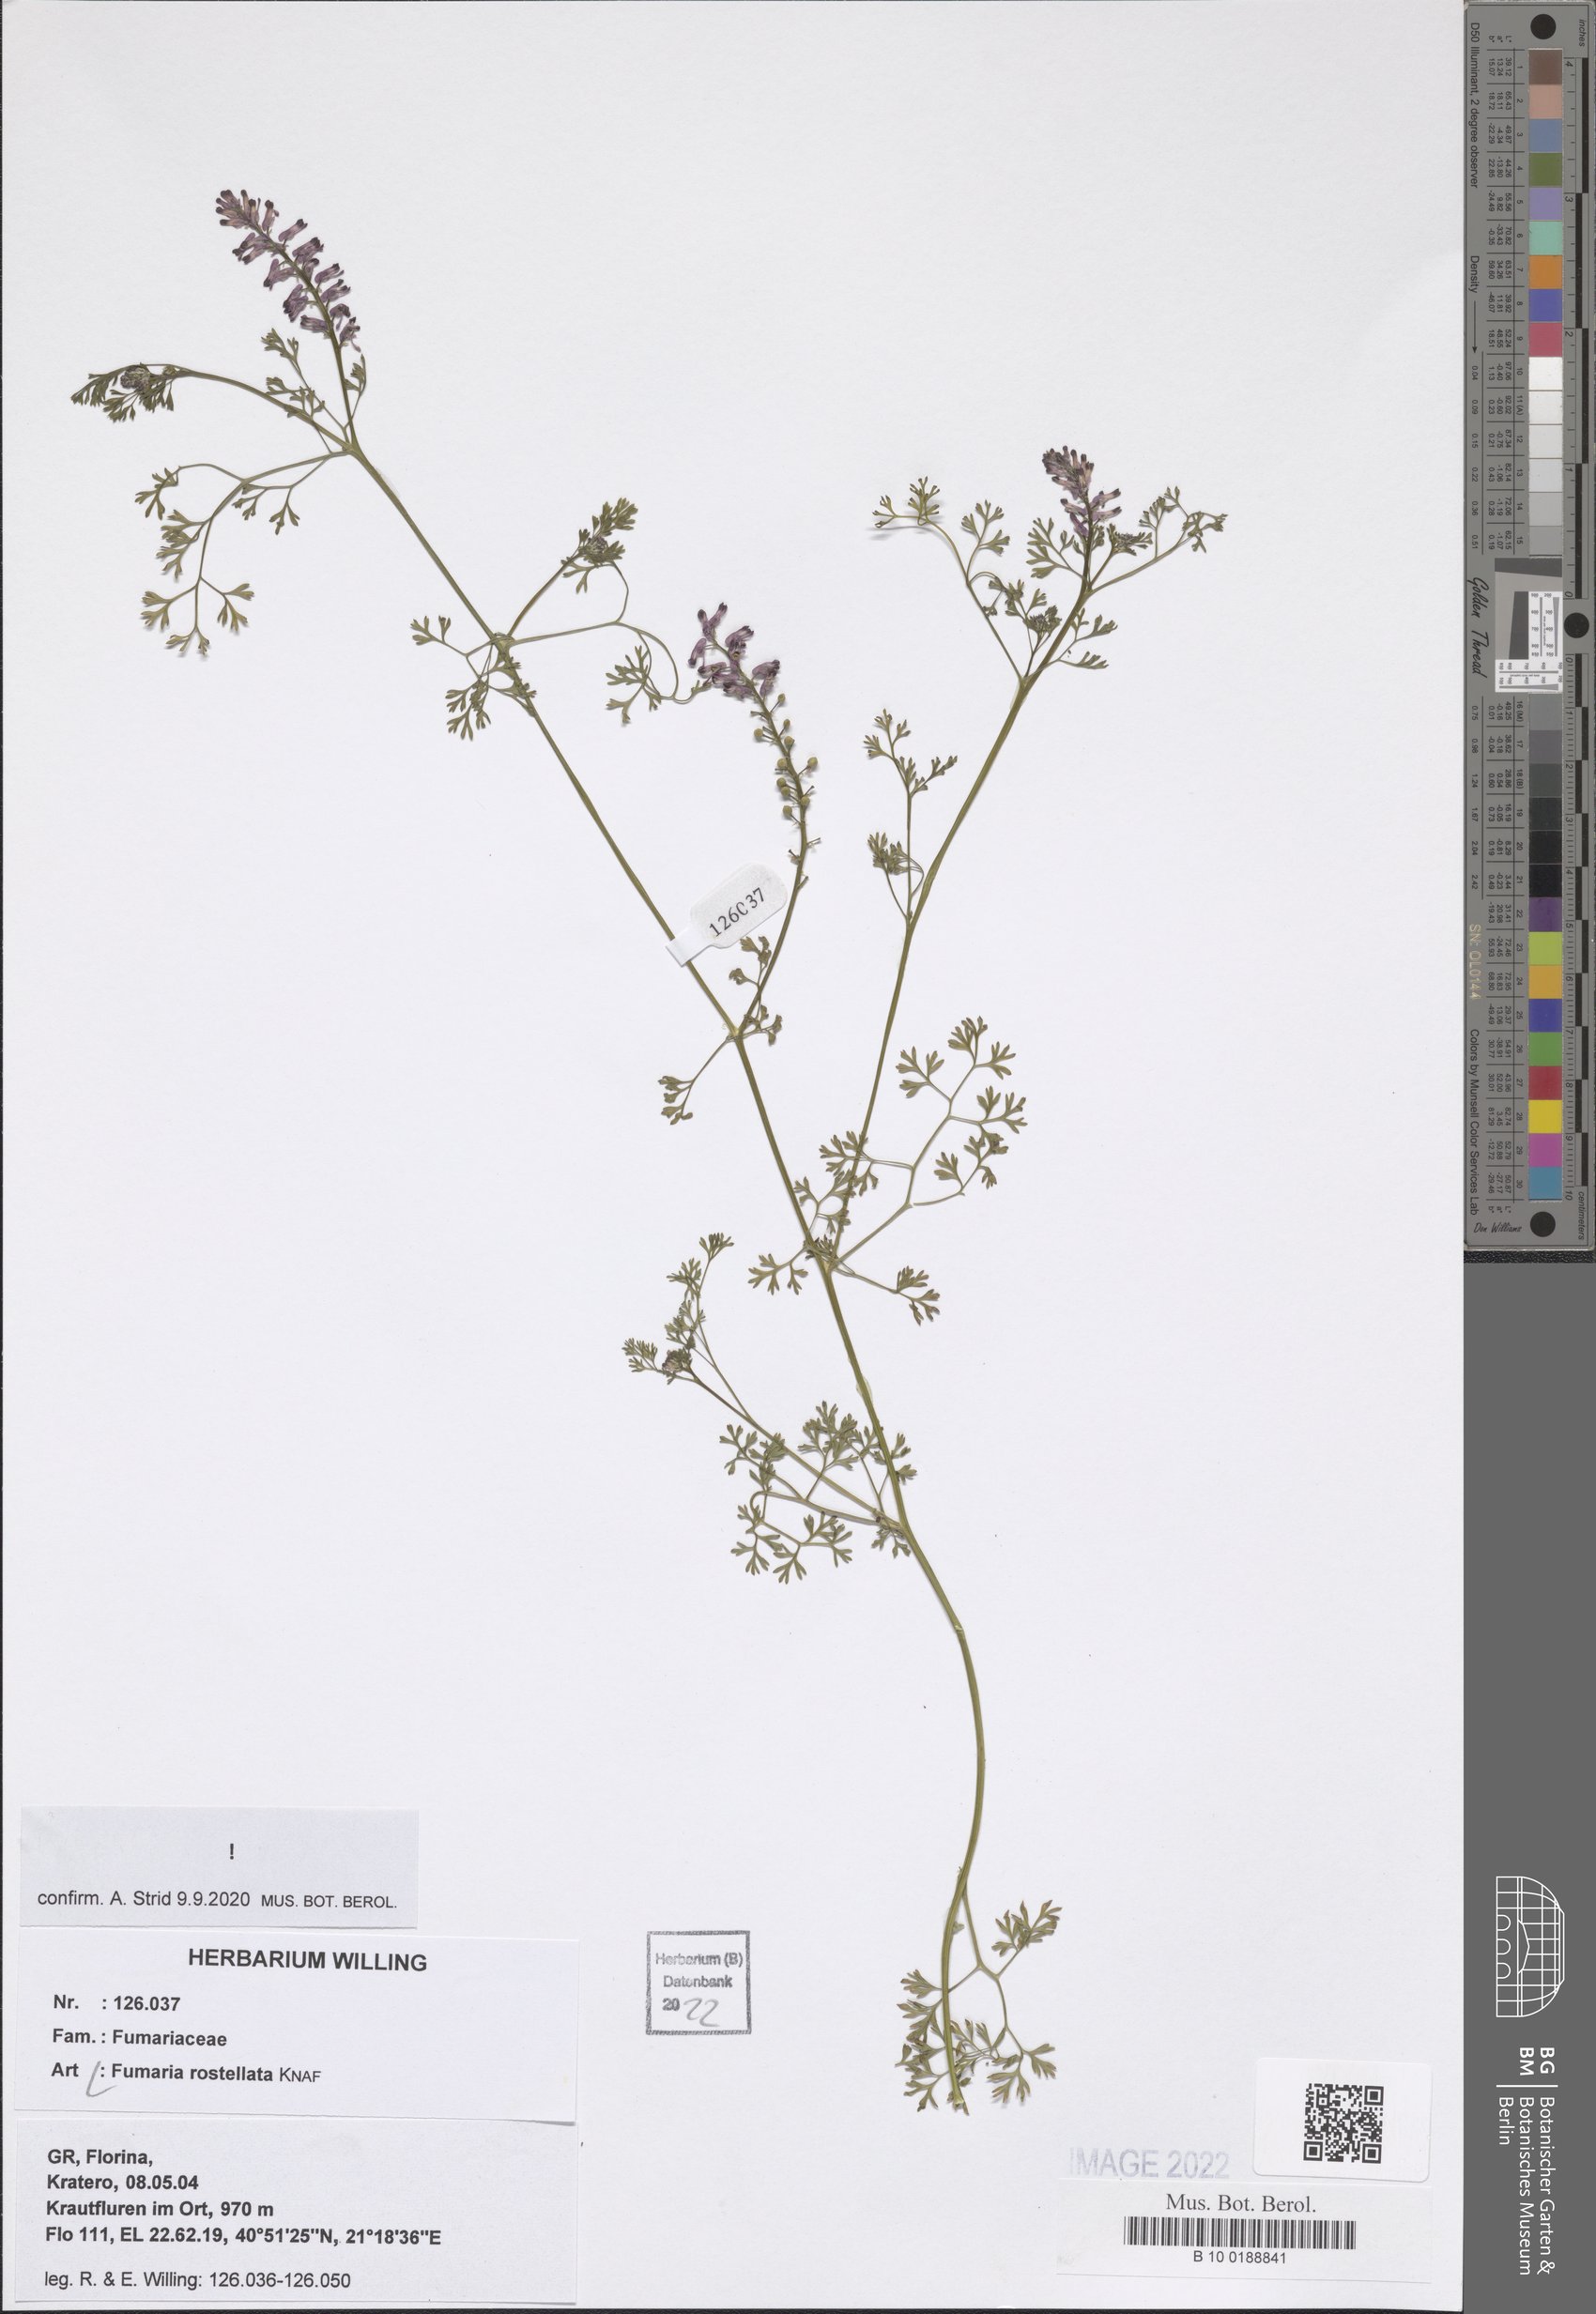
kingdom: Plantae
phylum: Tracheophyta
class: Magnoliopsida
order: Ranunculales
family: Papaveraceae
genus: Fumaria
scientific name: Fumaria rostellata
